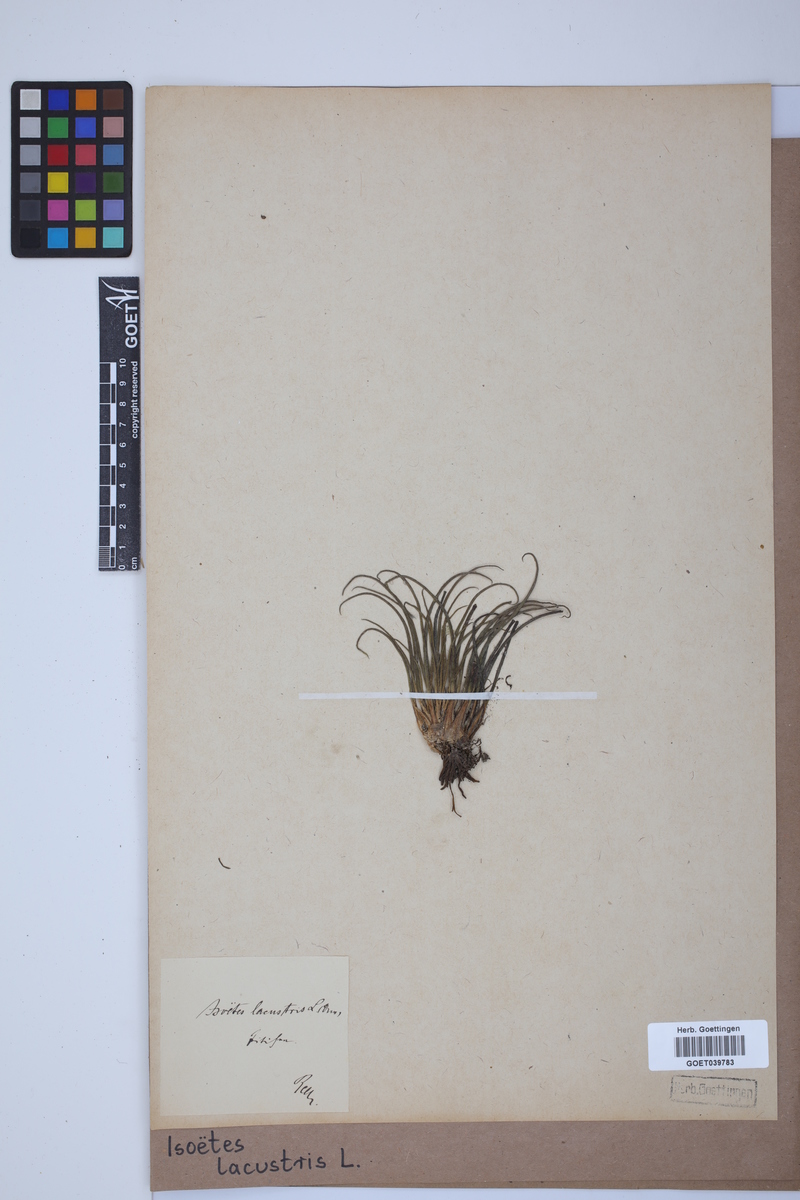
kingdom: Plantae
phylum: Tracheophyta
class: Lycopodiopsida
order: Isoetales
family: Isoetaceae
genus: Isoetes
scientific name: Isoetes lacustris
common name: Common quillwort
